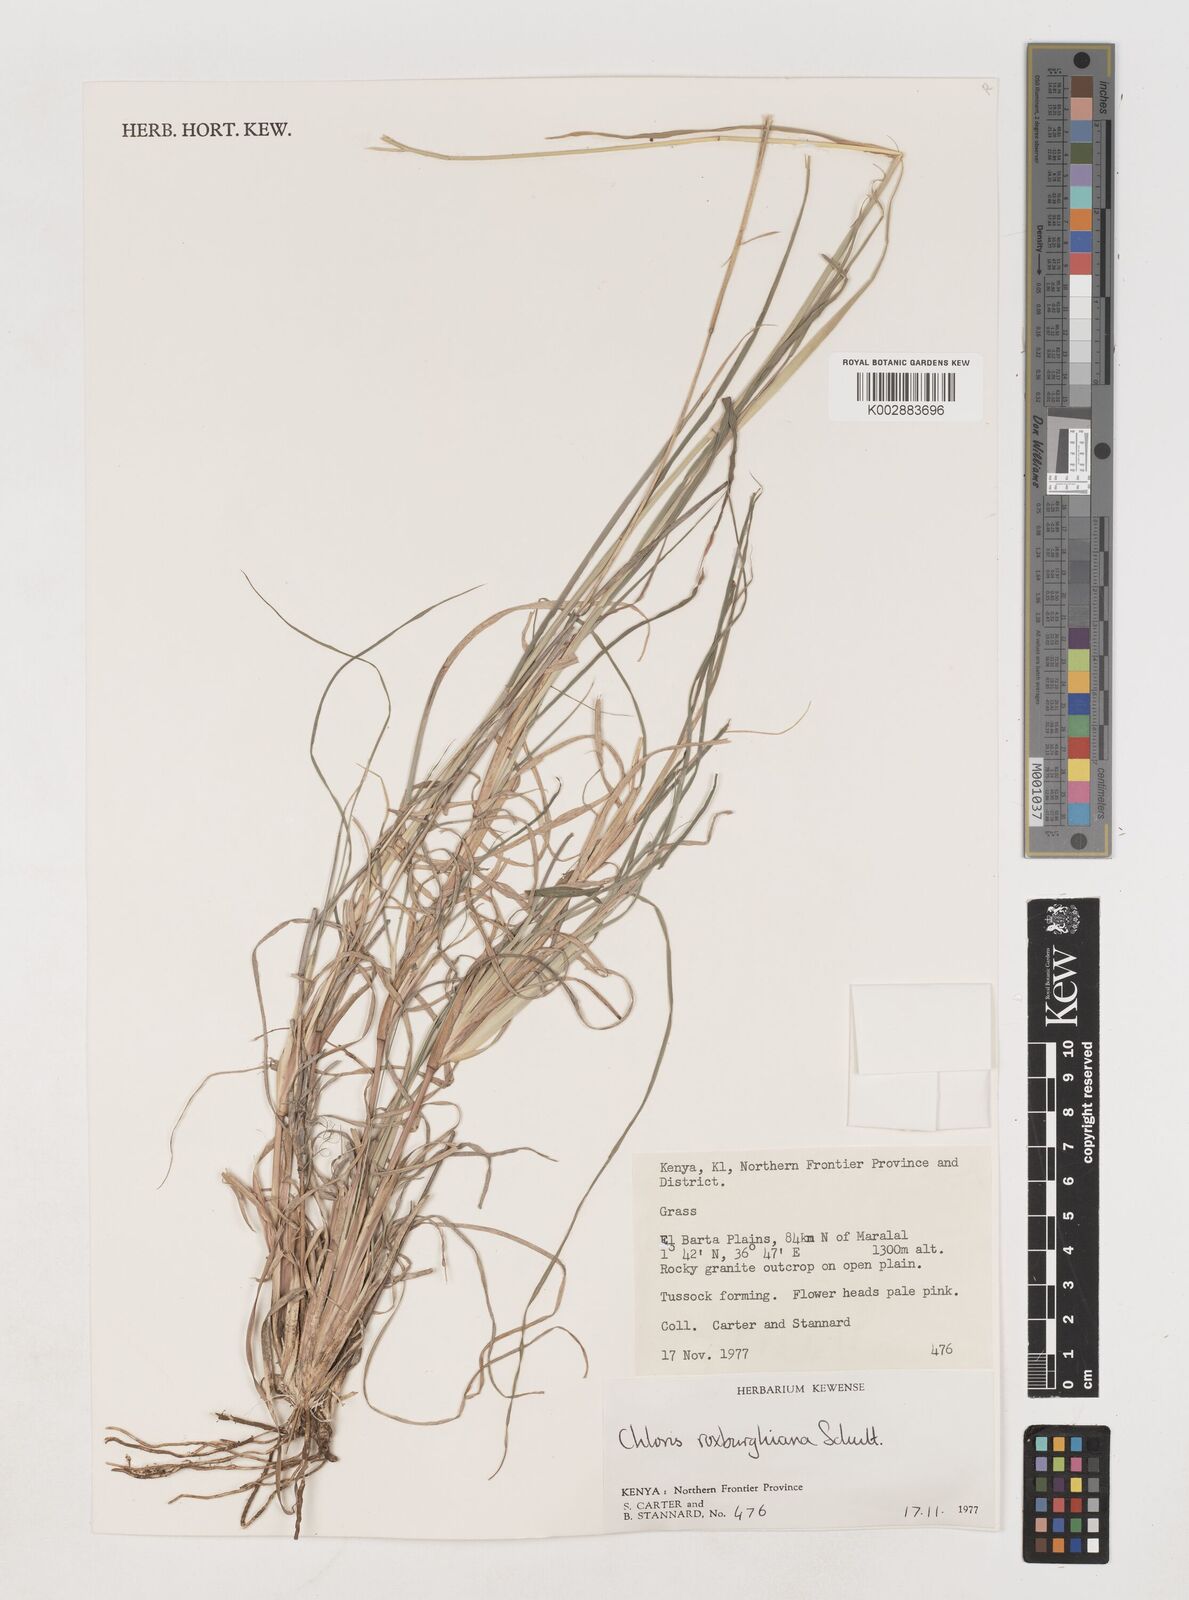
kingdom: Plantae
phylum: Tracheophyta
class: Liliopsida
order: Poales
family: Poaceae
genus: Tetrapogon
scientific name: Tetrapogon roxburghiana
